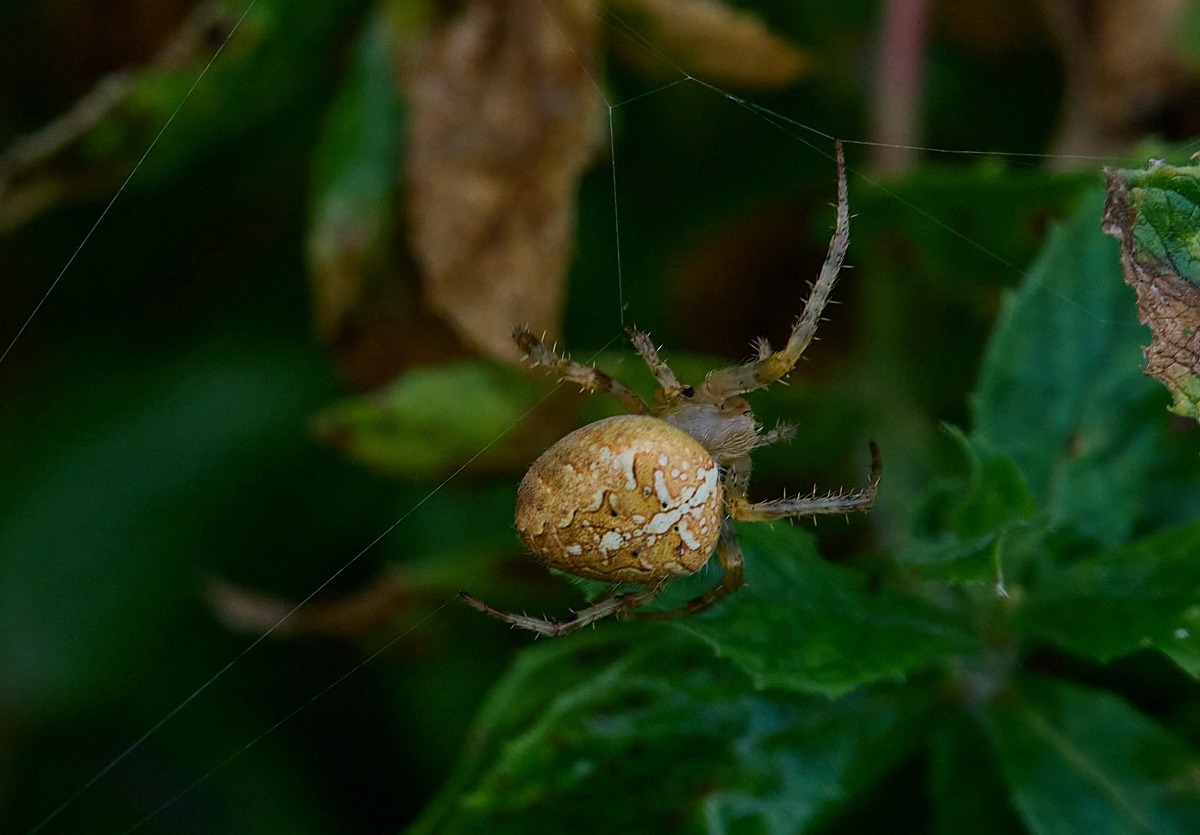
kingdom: Animalia
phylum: Arthropoda
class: Arachnida
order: Araneae
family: Araneidae
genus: Araneus
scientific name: Araneus diadematus
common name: Korsedderkop
